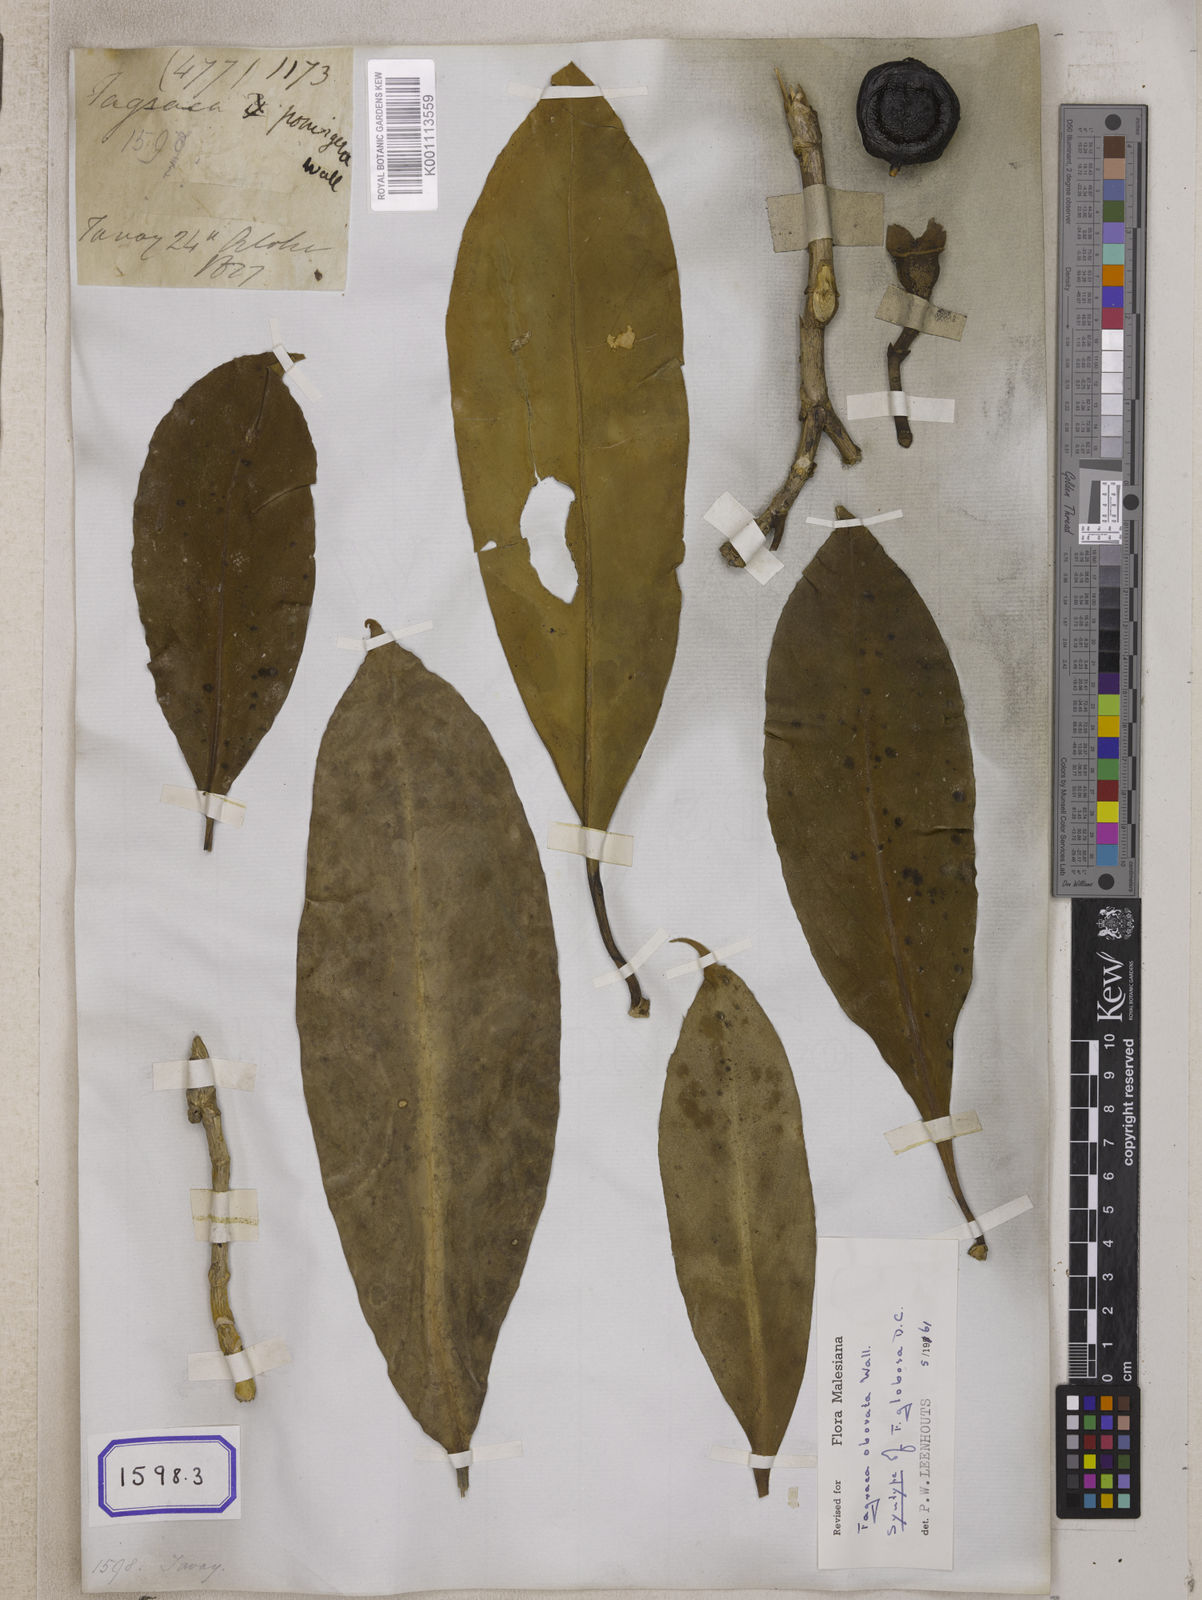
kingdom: Plantae
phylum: Tracheophyta
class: Magnoliopsida
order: Gentianales
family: Gentianaceae
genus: Fagraea
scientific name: Fagraea
